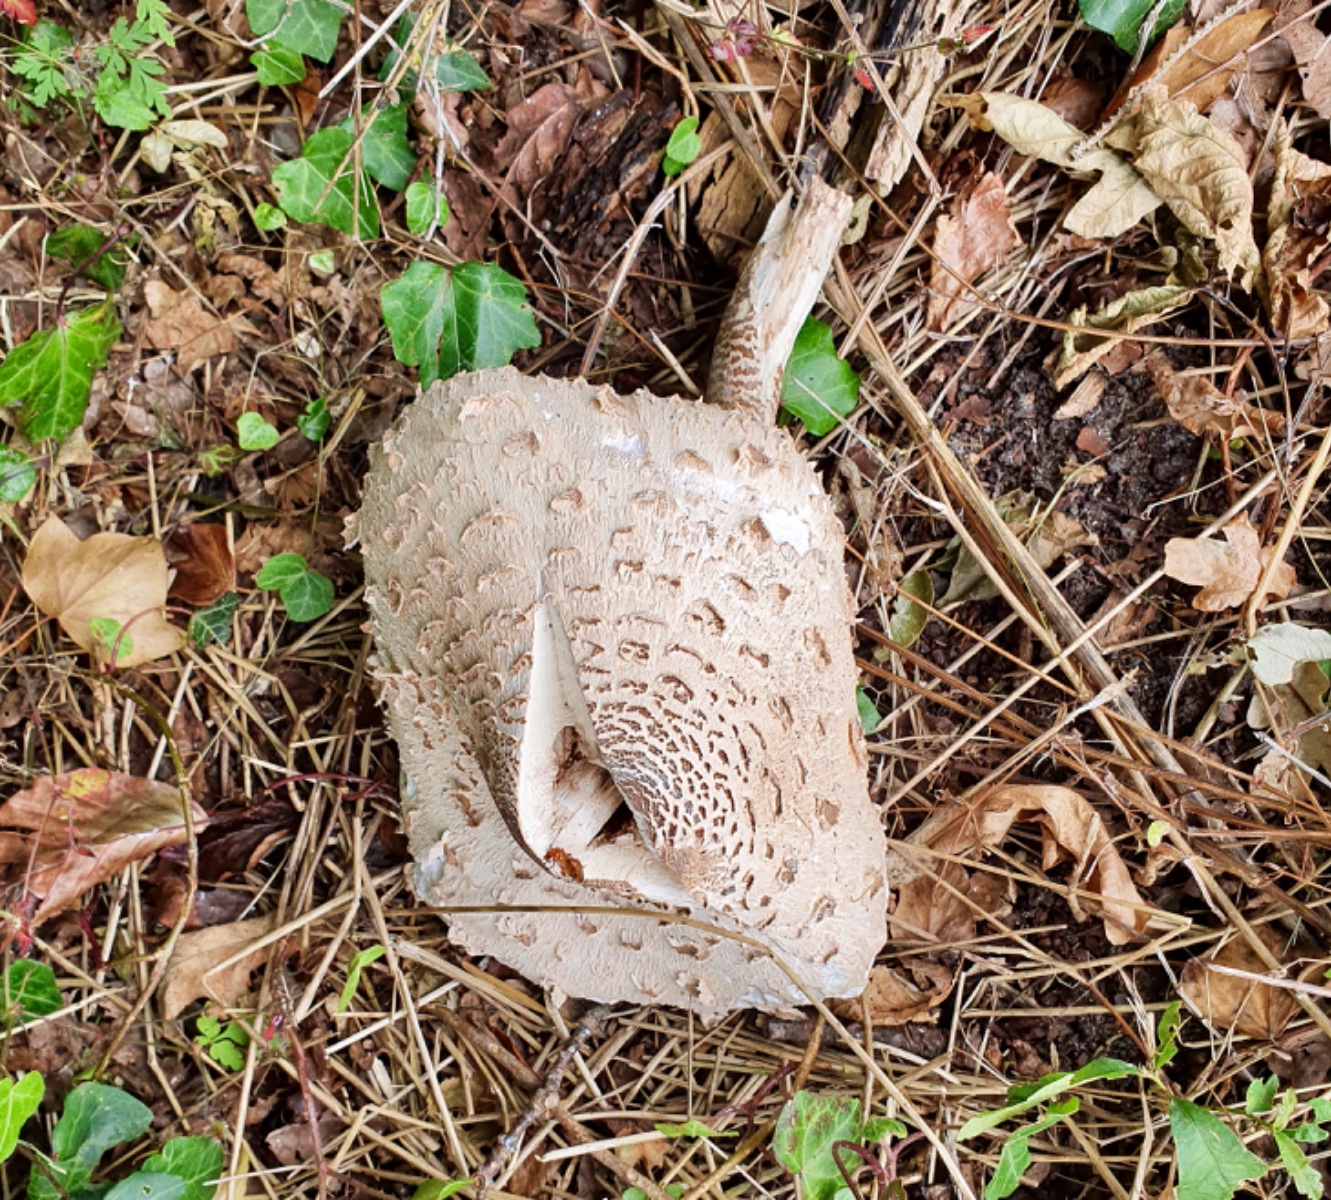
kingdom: Fungi
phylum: Basidiomycota
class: Agaricomycetes
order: Agaricales
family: Agaricaceae
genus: Macrolepiota
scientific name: Macrolepiota procera
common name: stor kæmpeparasolhat
